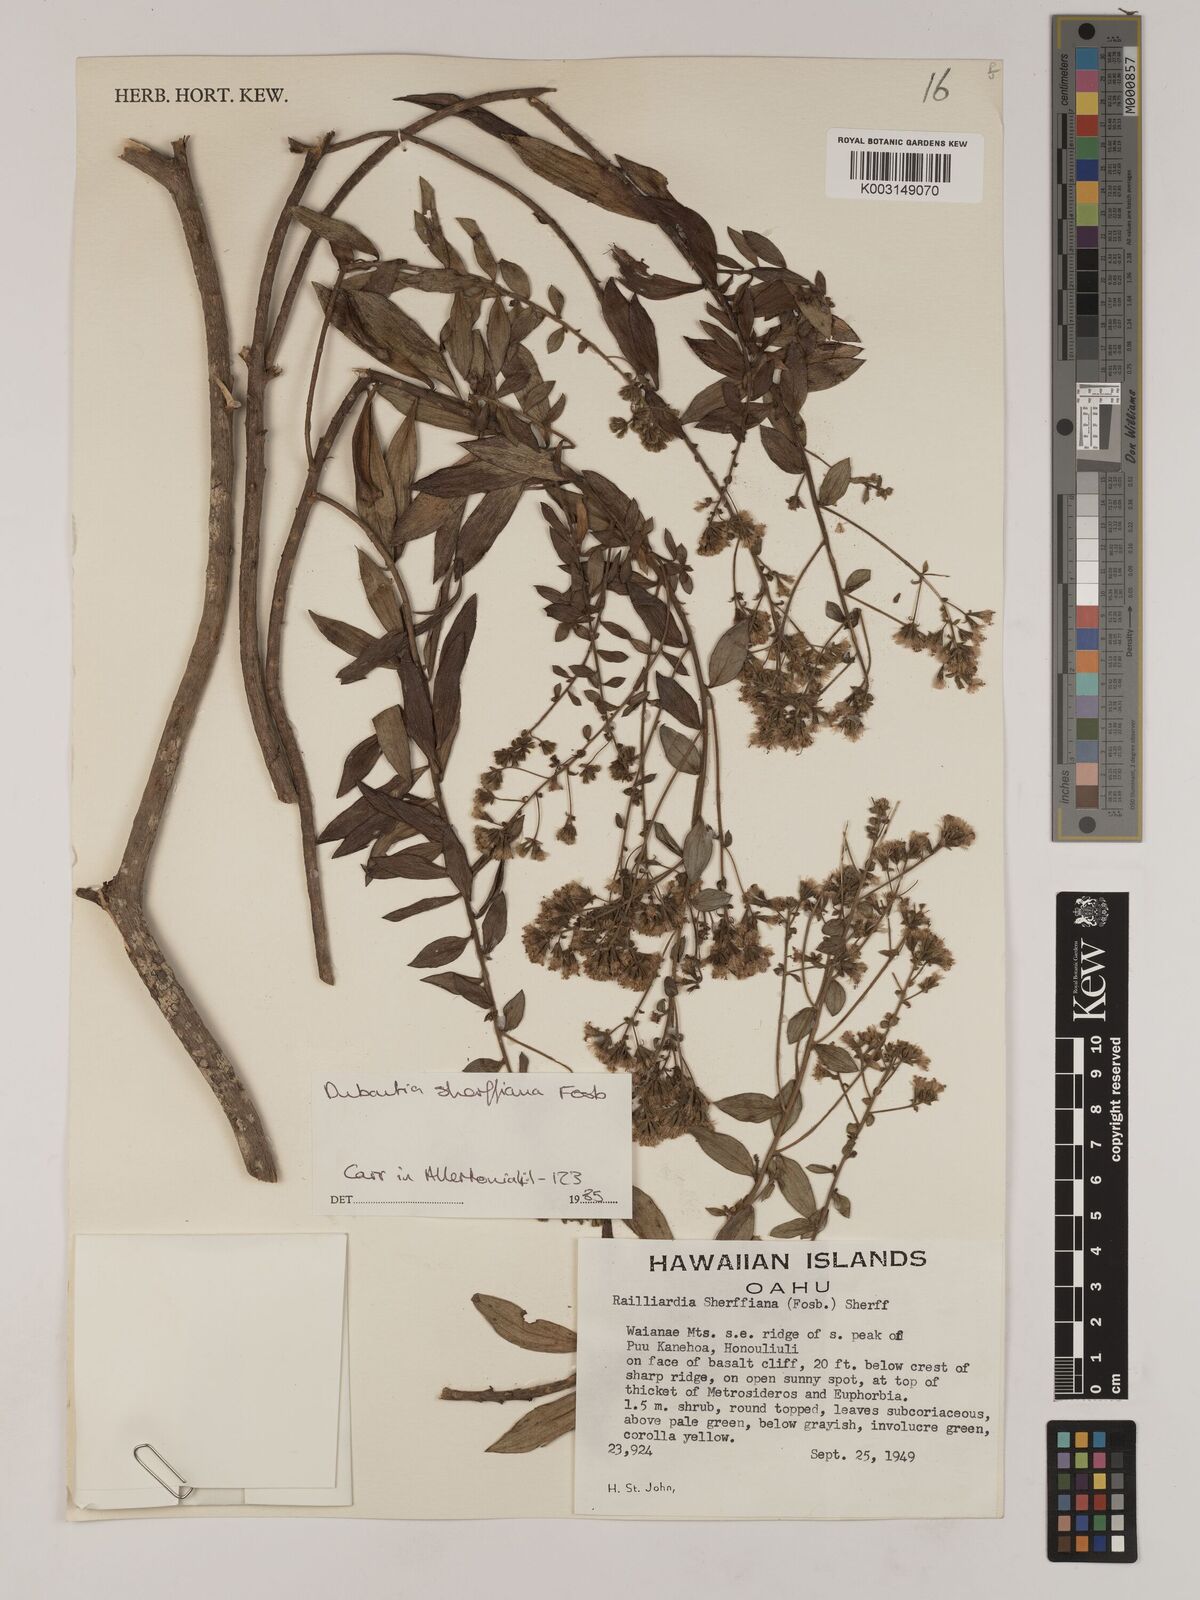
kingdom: Plantae
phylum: Tracheophyta
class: Magnoliopsida
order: Asterales
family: Asteraceae
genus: Dubautia
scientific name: Dubautia sherffiana
